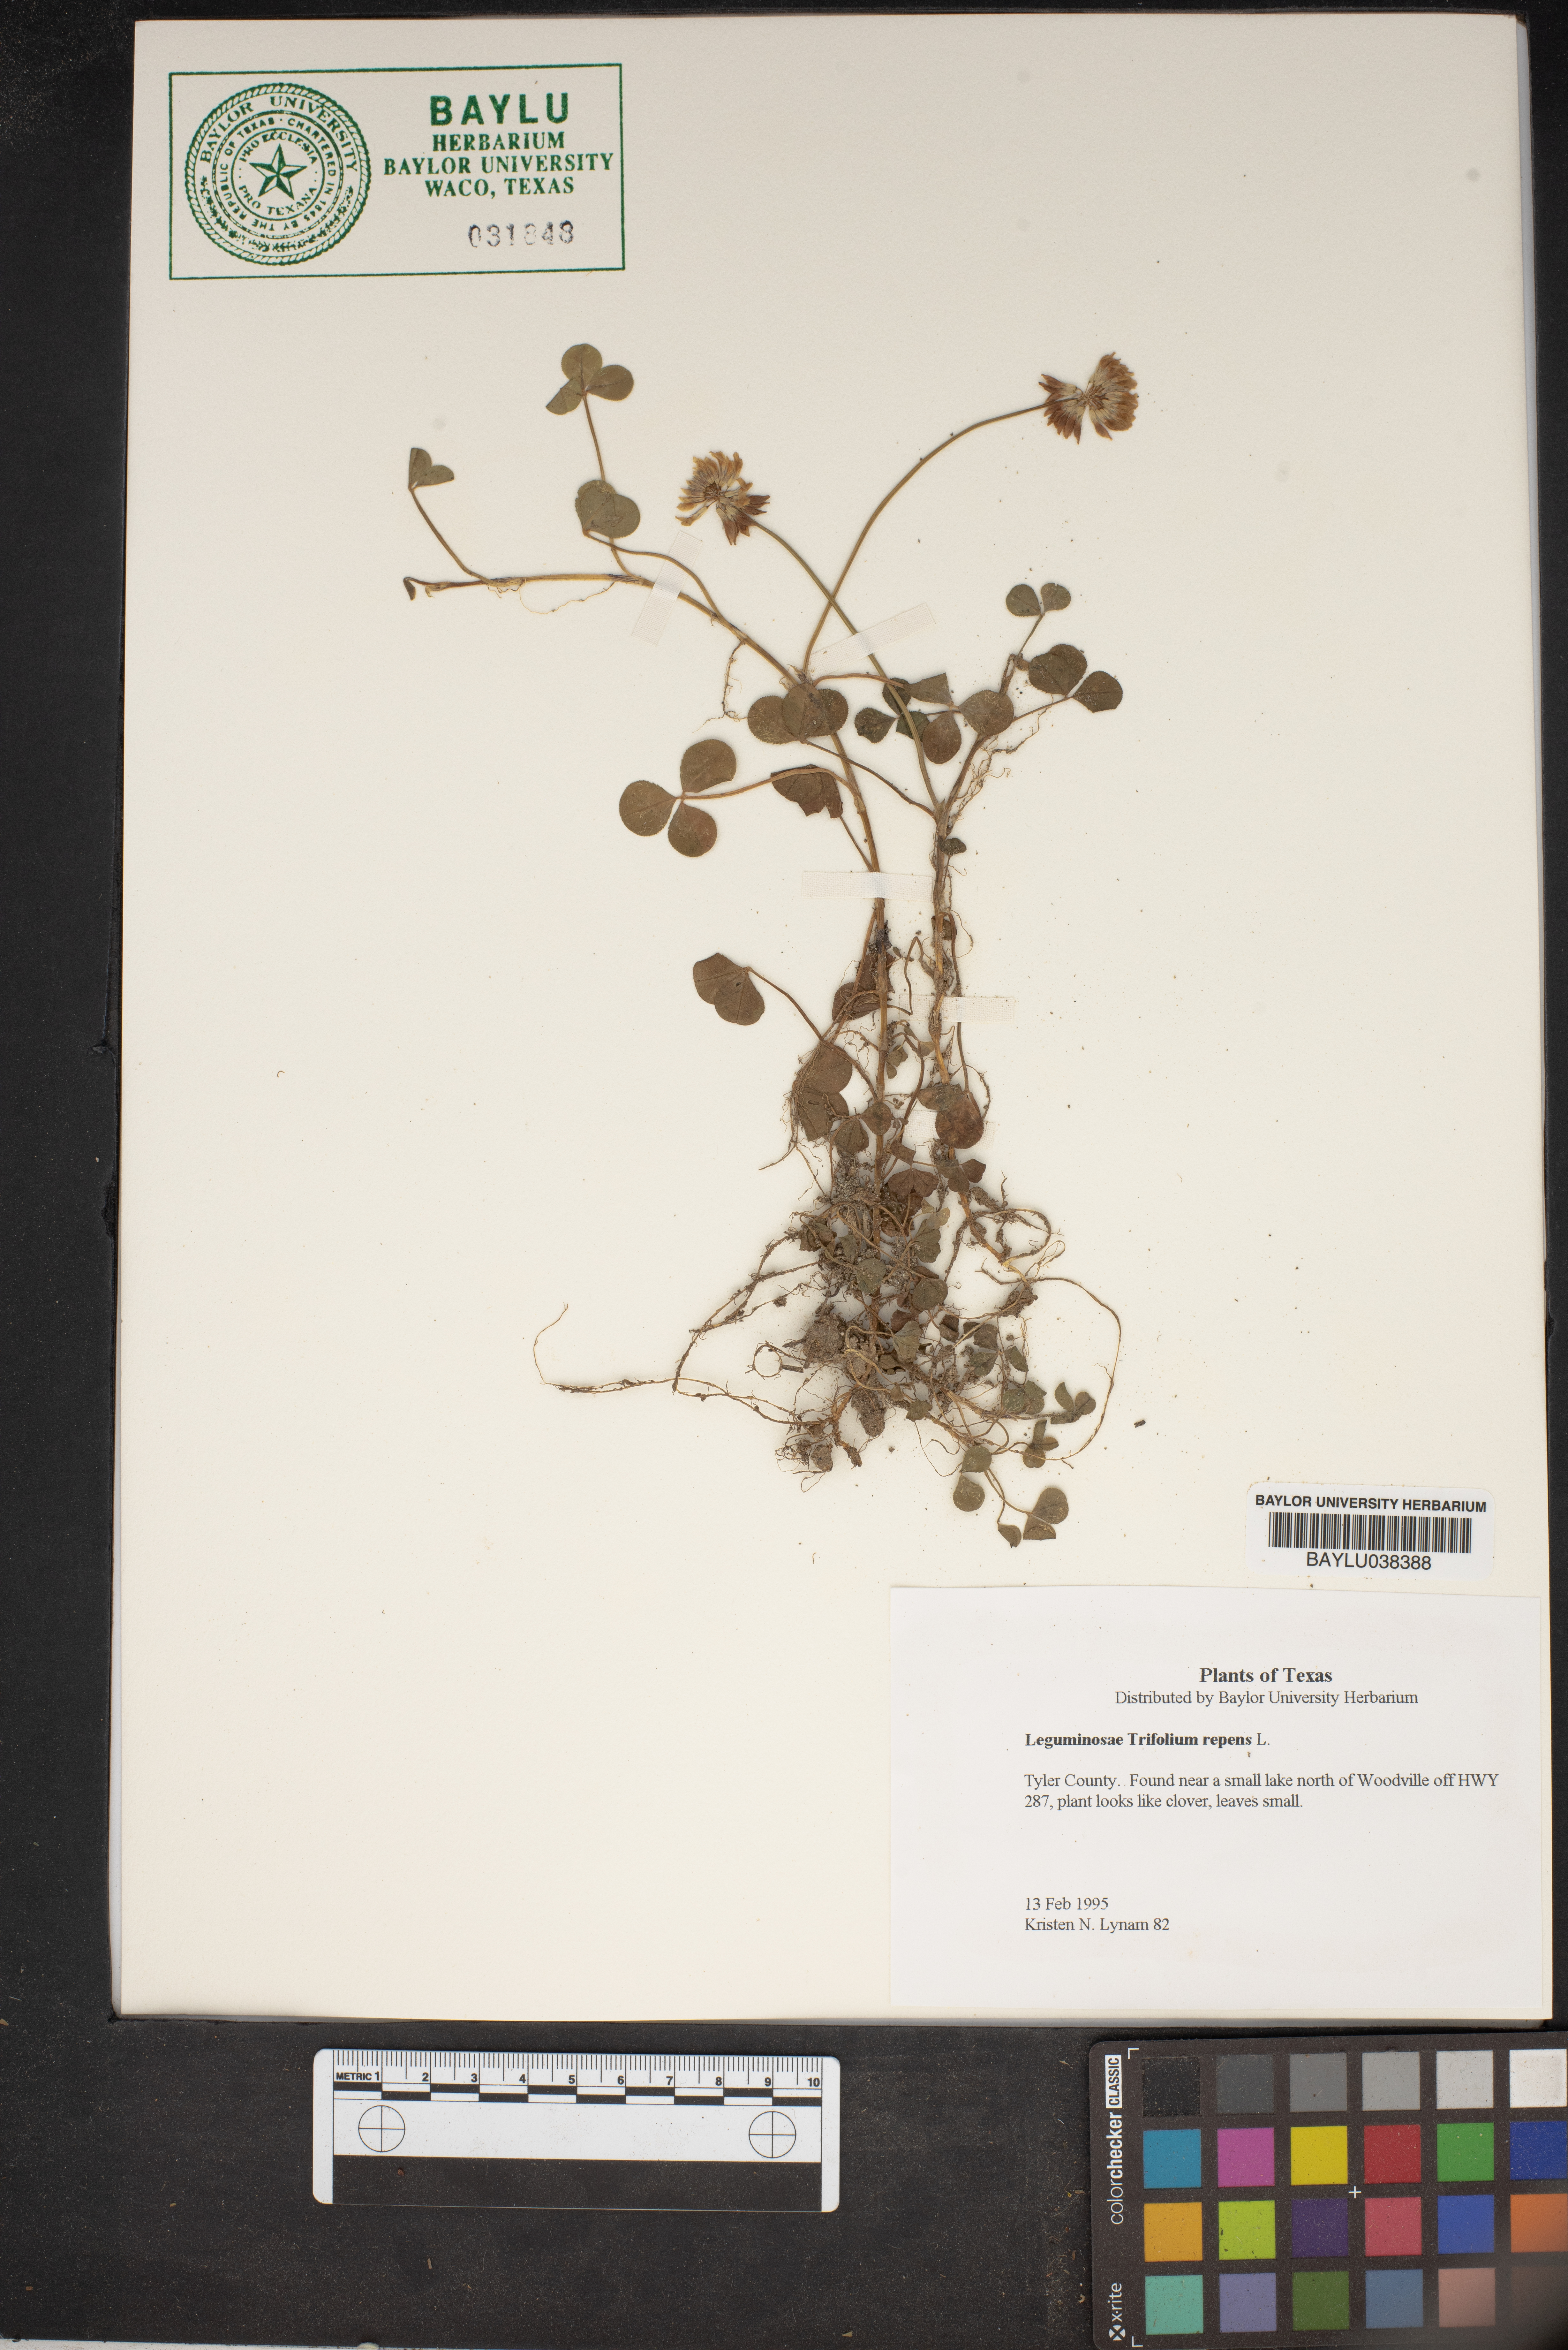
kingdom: Plantae
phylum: Tracheophyta
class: Magnoliopsida
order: Fabales
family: Fabaceae
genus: Trifolium
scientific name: Trifolium repens
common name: White clover
